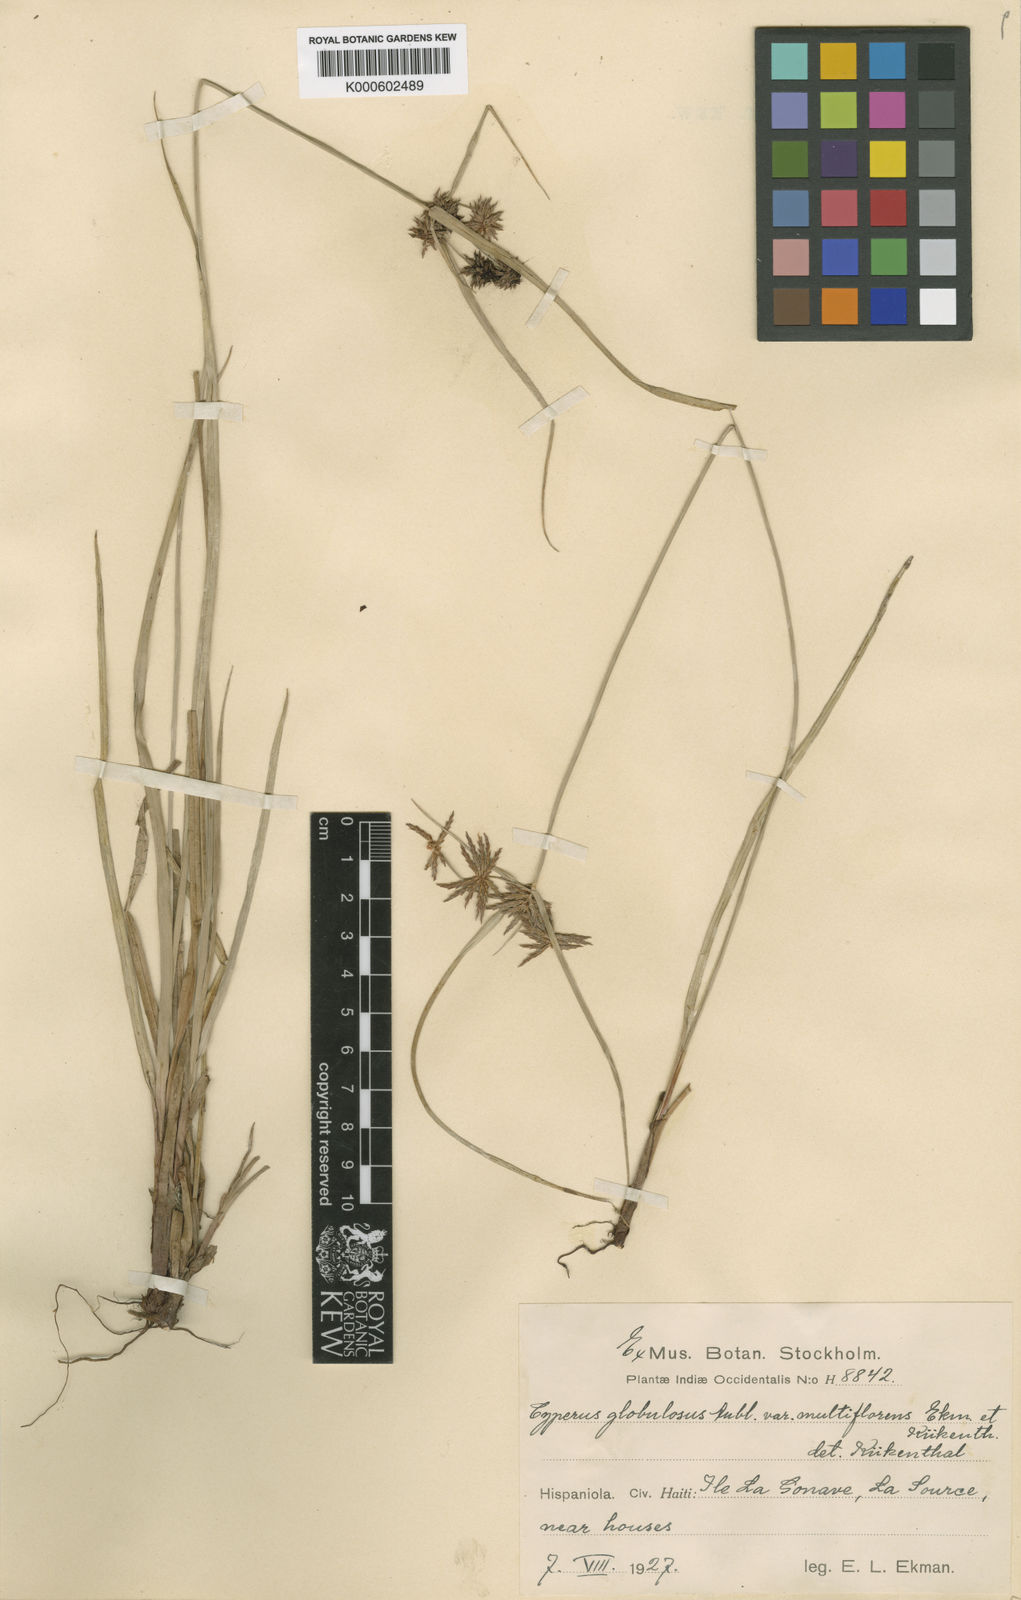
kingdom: Plantae
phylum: Tracheophyta
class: Liliopsida
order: Poales
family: Cyperaceae
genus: Cyperus
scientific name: Cyperus luzulae
